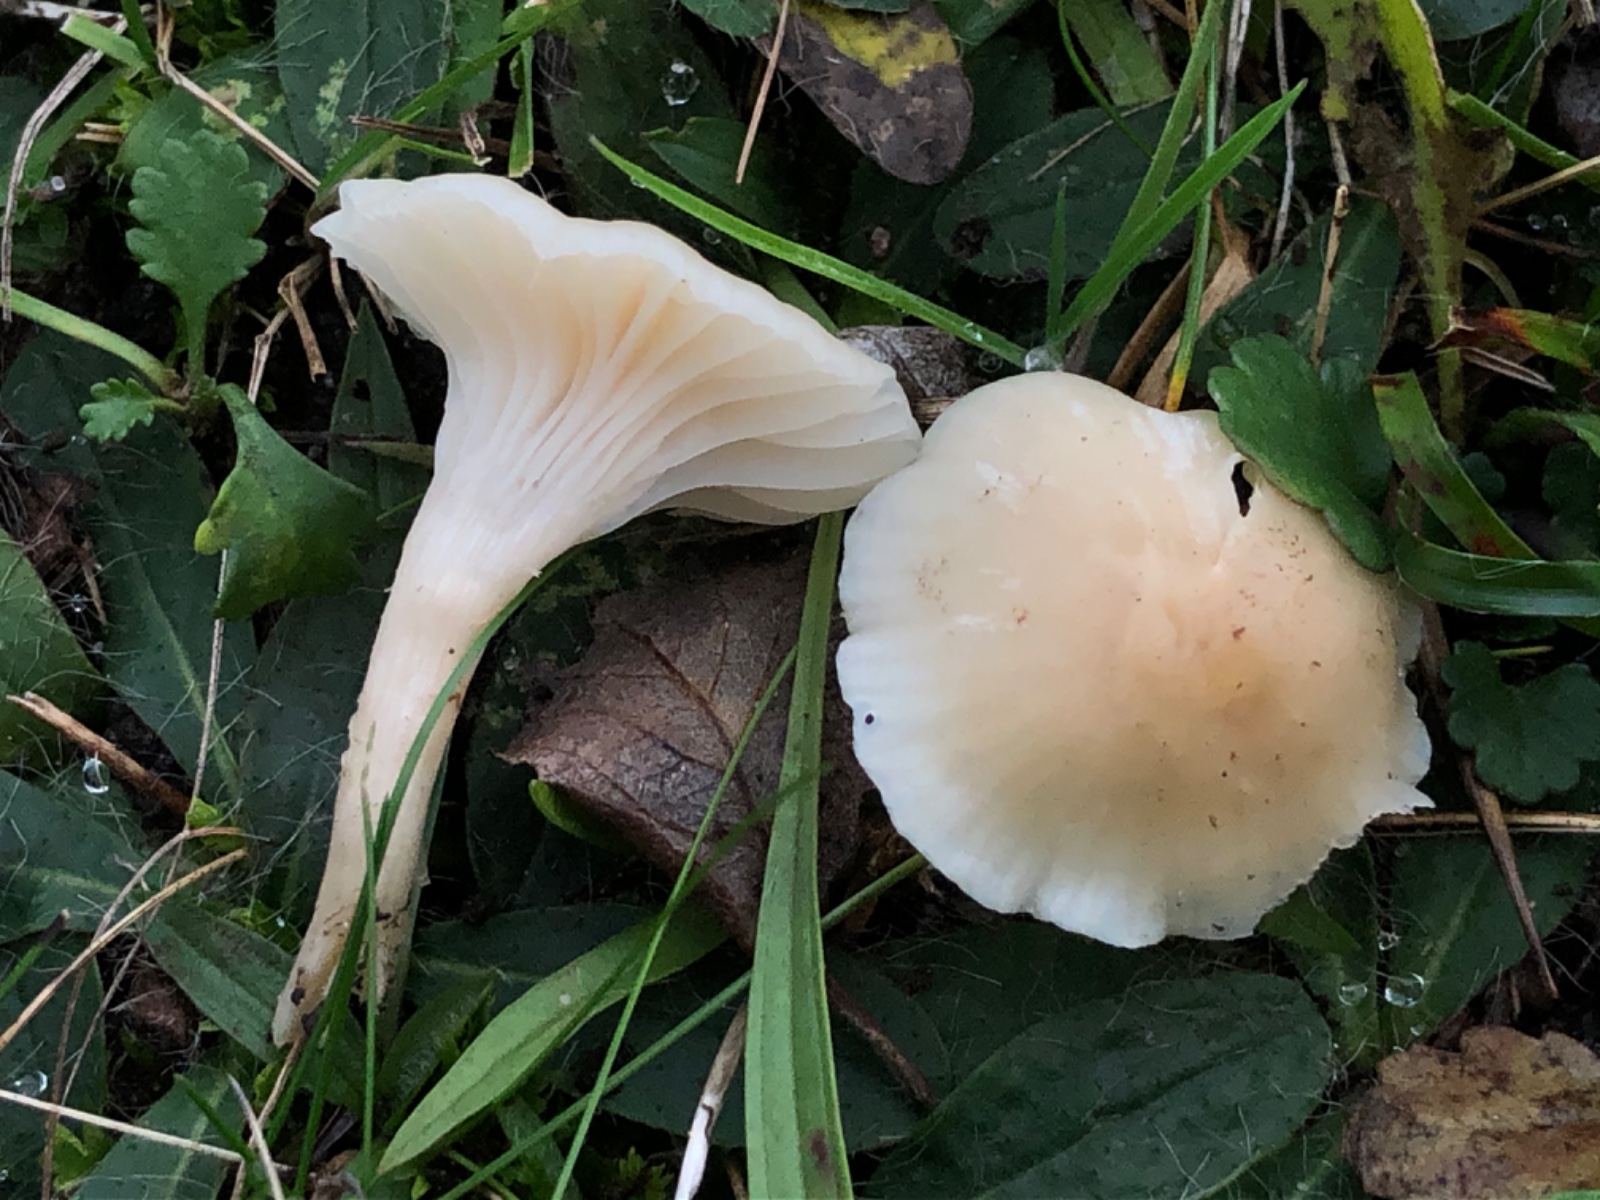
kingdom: Fungi
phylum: Basidiomycota
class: Agaricomycetes
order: Agaricales
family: Hygrophoraceae
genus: Cuphophyllus
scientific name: Cuphophyllus virgineus
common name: isabella-vokshat
